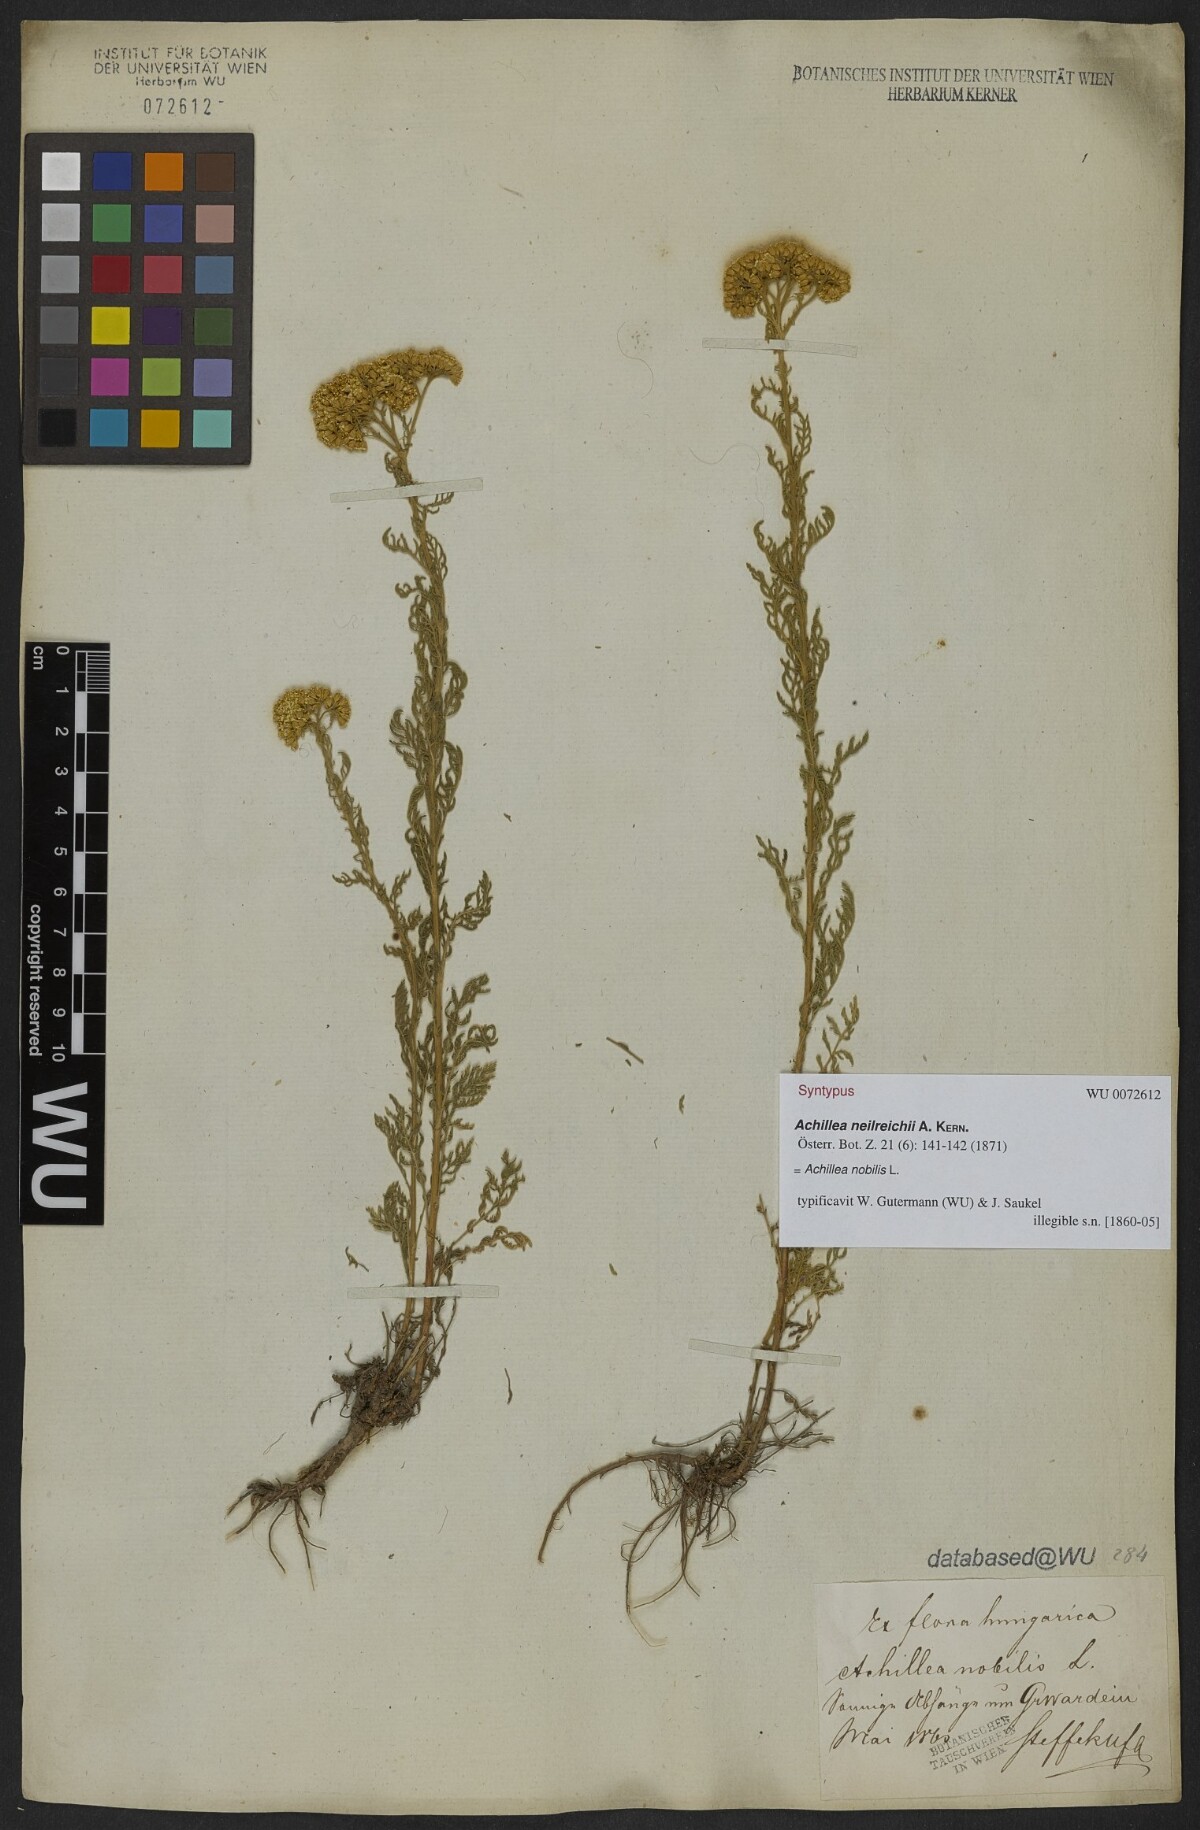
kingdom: Plantae
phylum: Tracheophyta
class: Magnoliopsida
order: Asterales
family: Asteraceae
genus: Achillea
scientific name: Achillea nobilis
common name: Noble yarrow
